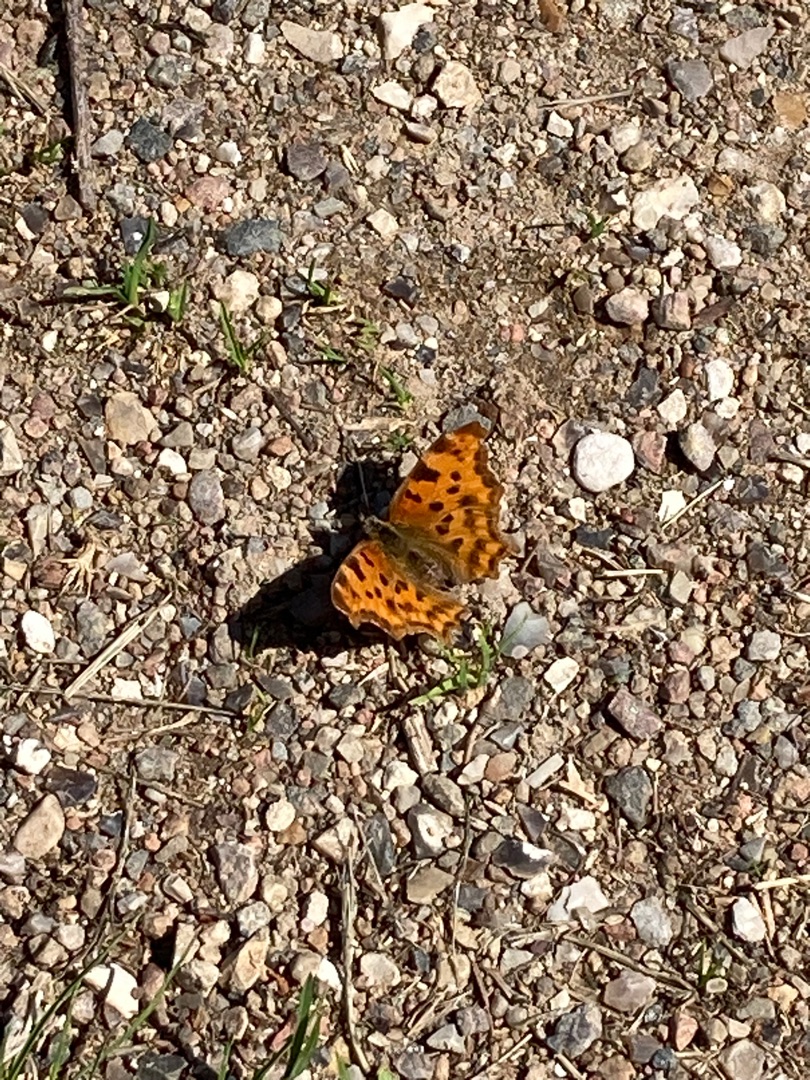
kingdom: Animalia
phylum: Arthropoda
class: Insecta
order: Lepidoptera
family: Nymphalidae
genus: Polygonia
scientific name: Polygonia c-album
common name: Det hvide C
